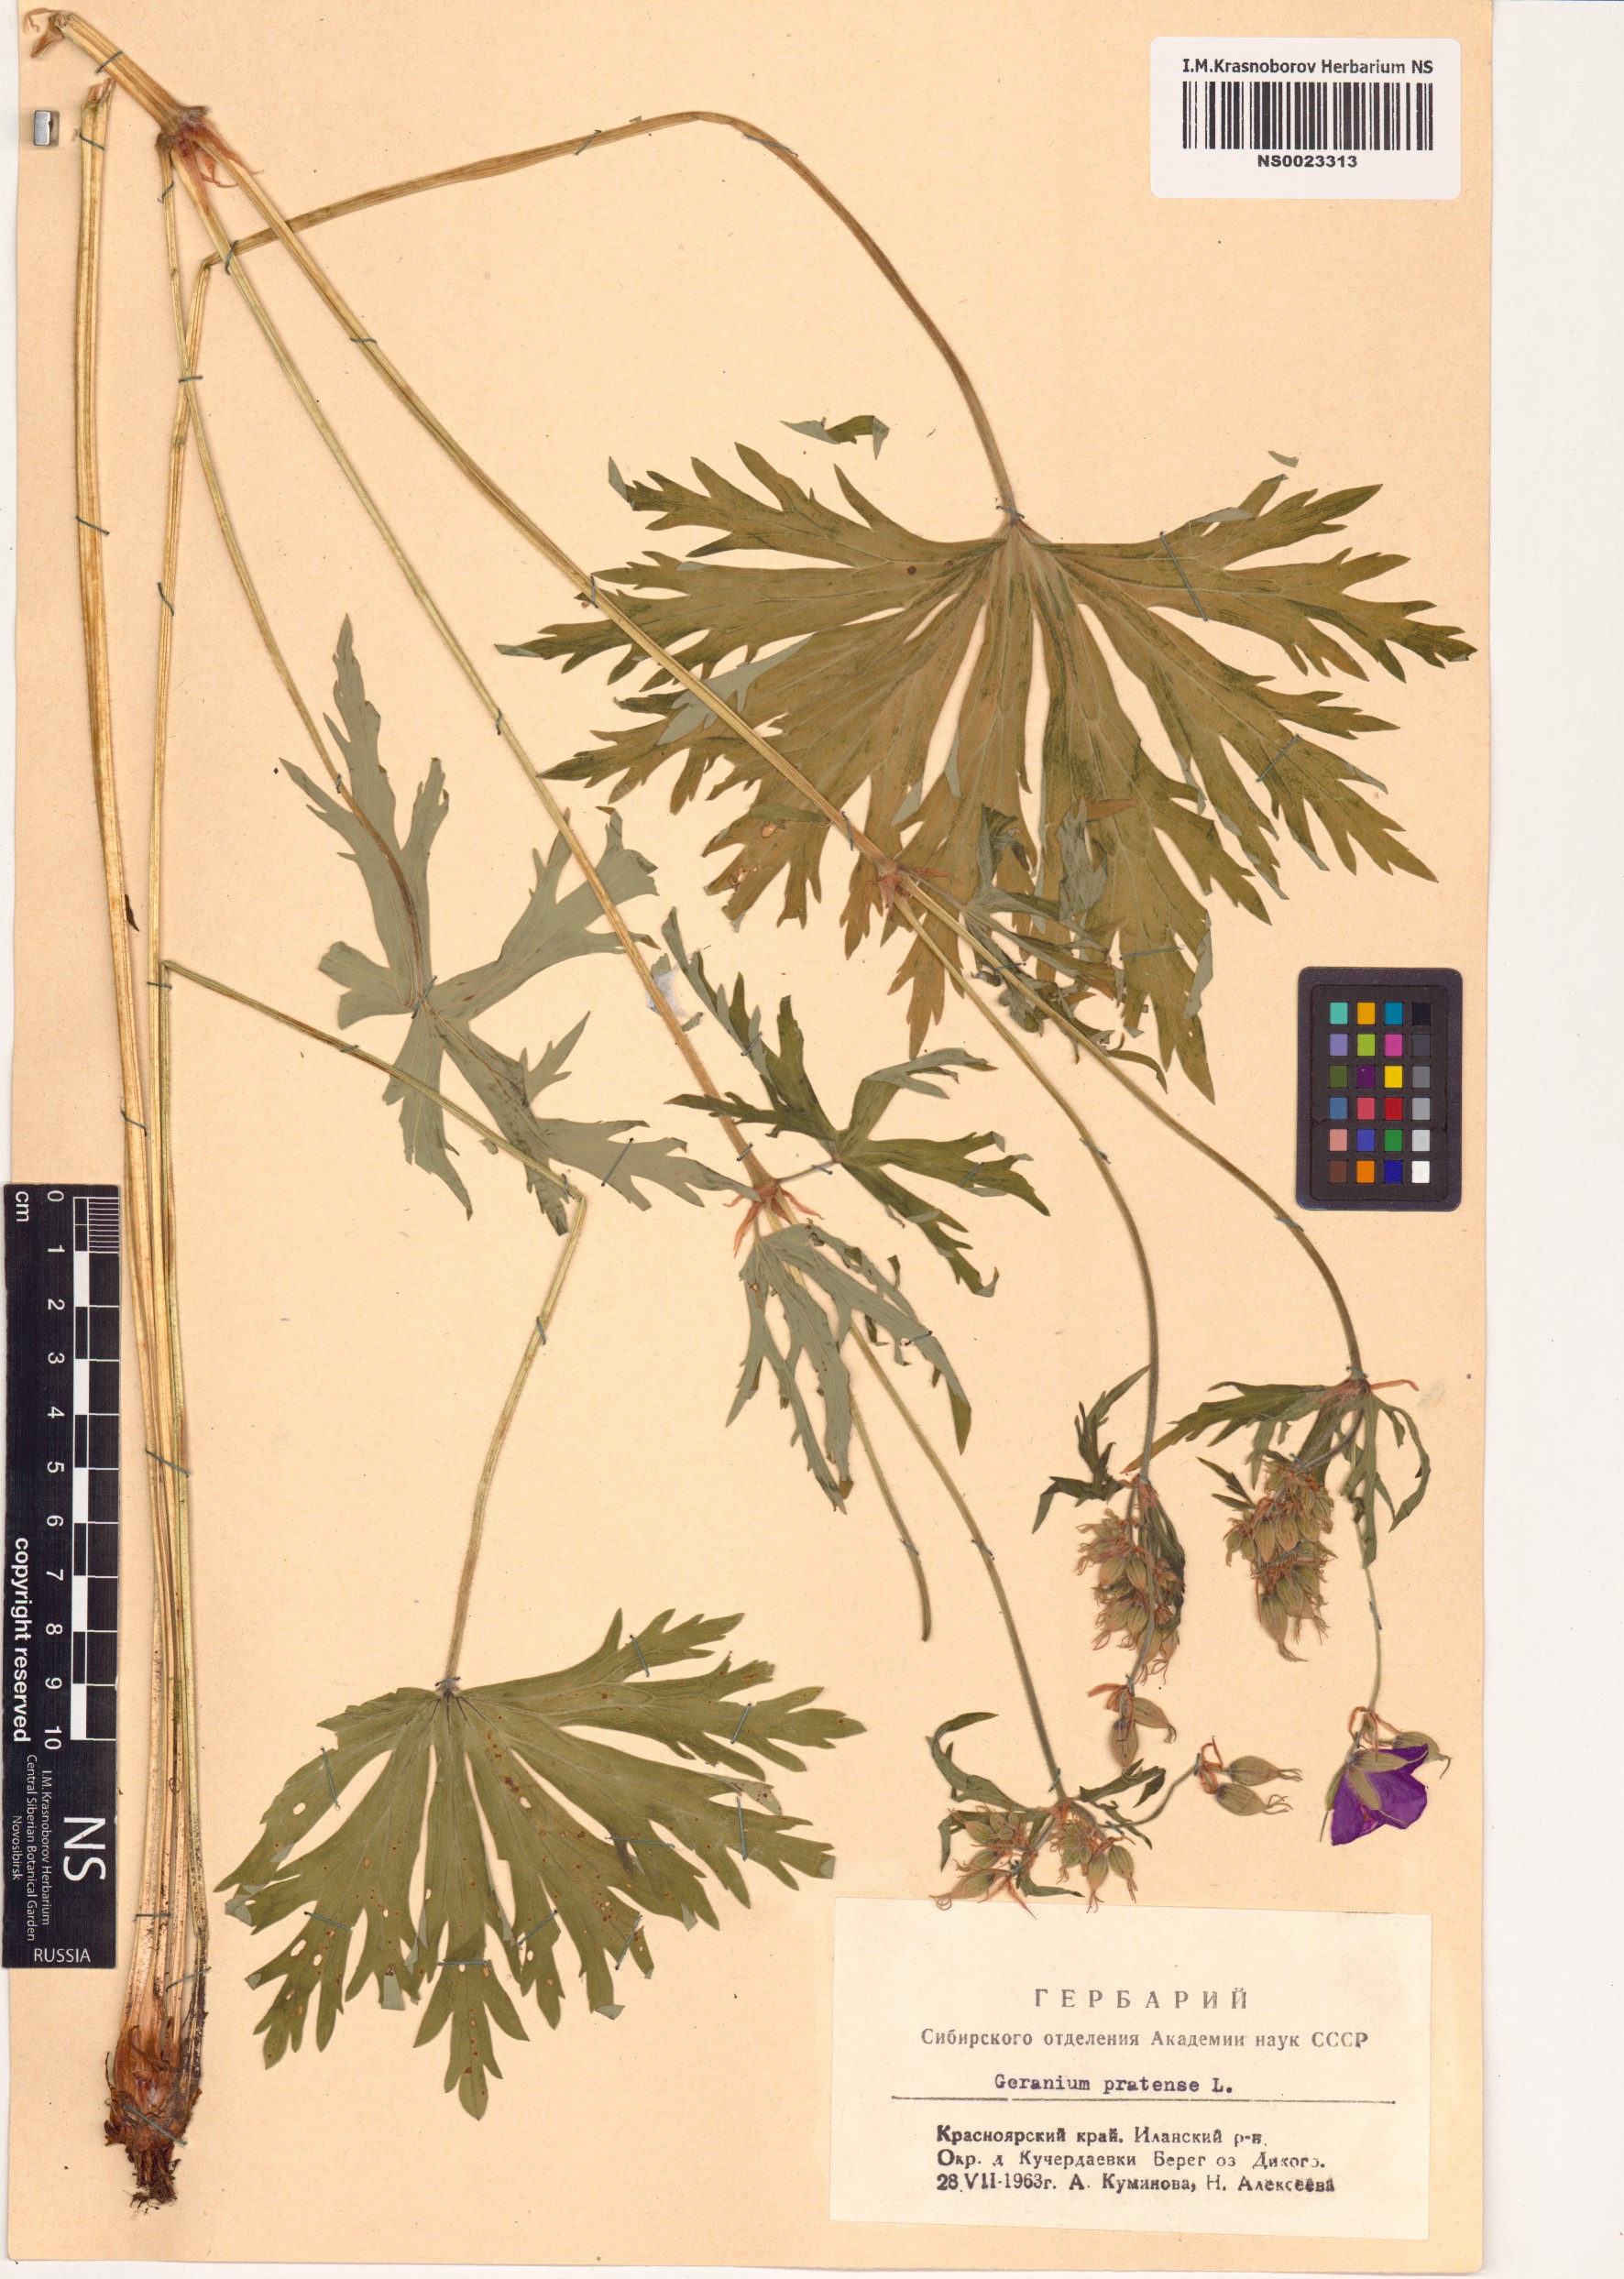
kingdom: Plantae
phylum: Tracheophyta
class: Magnoliopsida
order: Geraniales
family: Geraniaceae
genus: Geranium
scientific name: Geranium pratense
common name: Meadow crane's-bill
